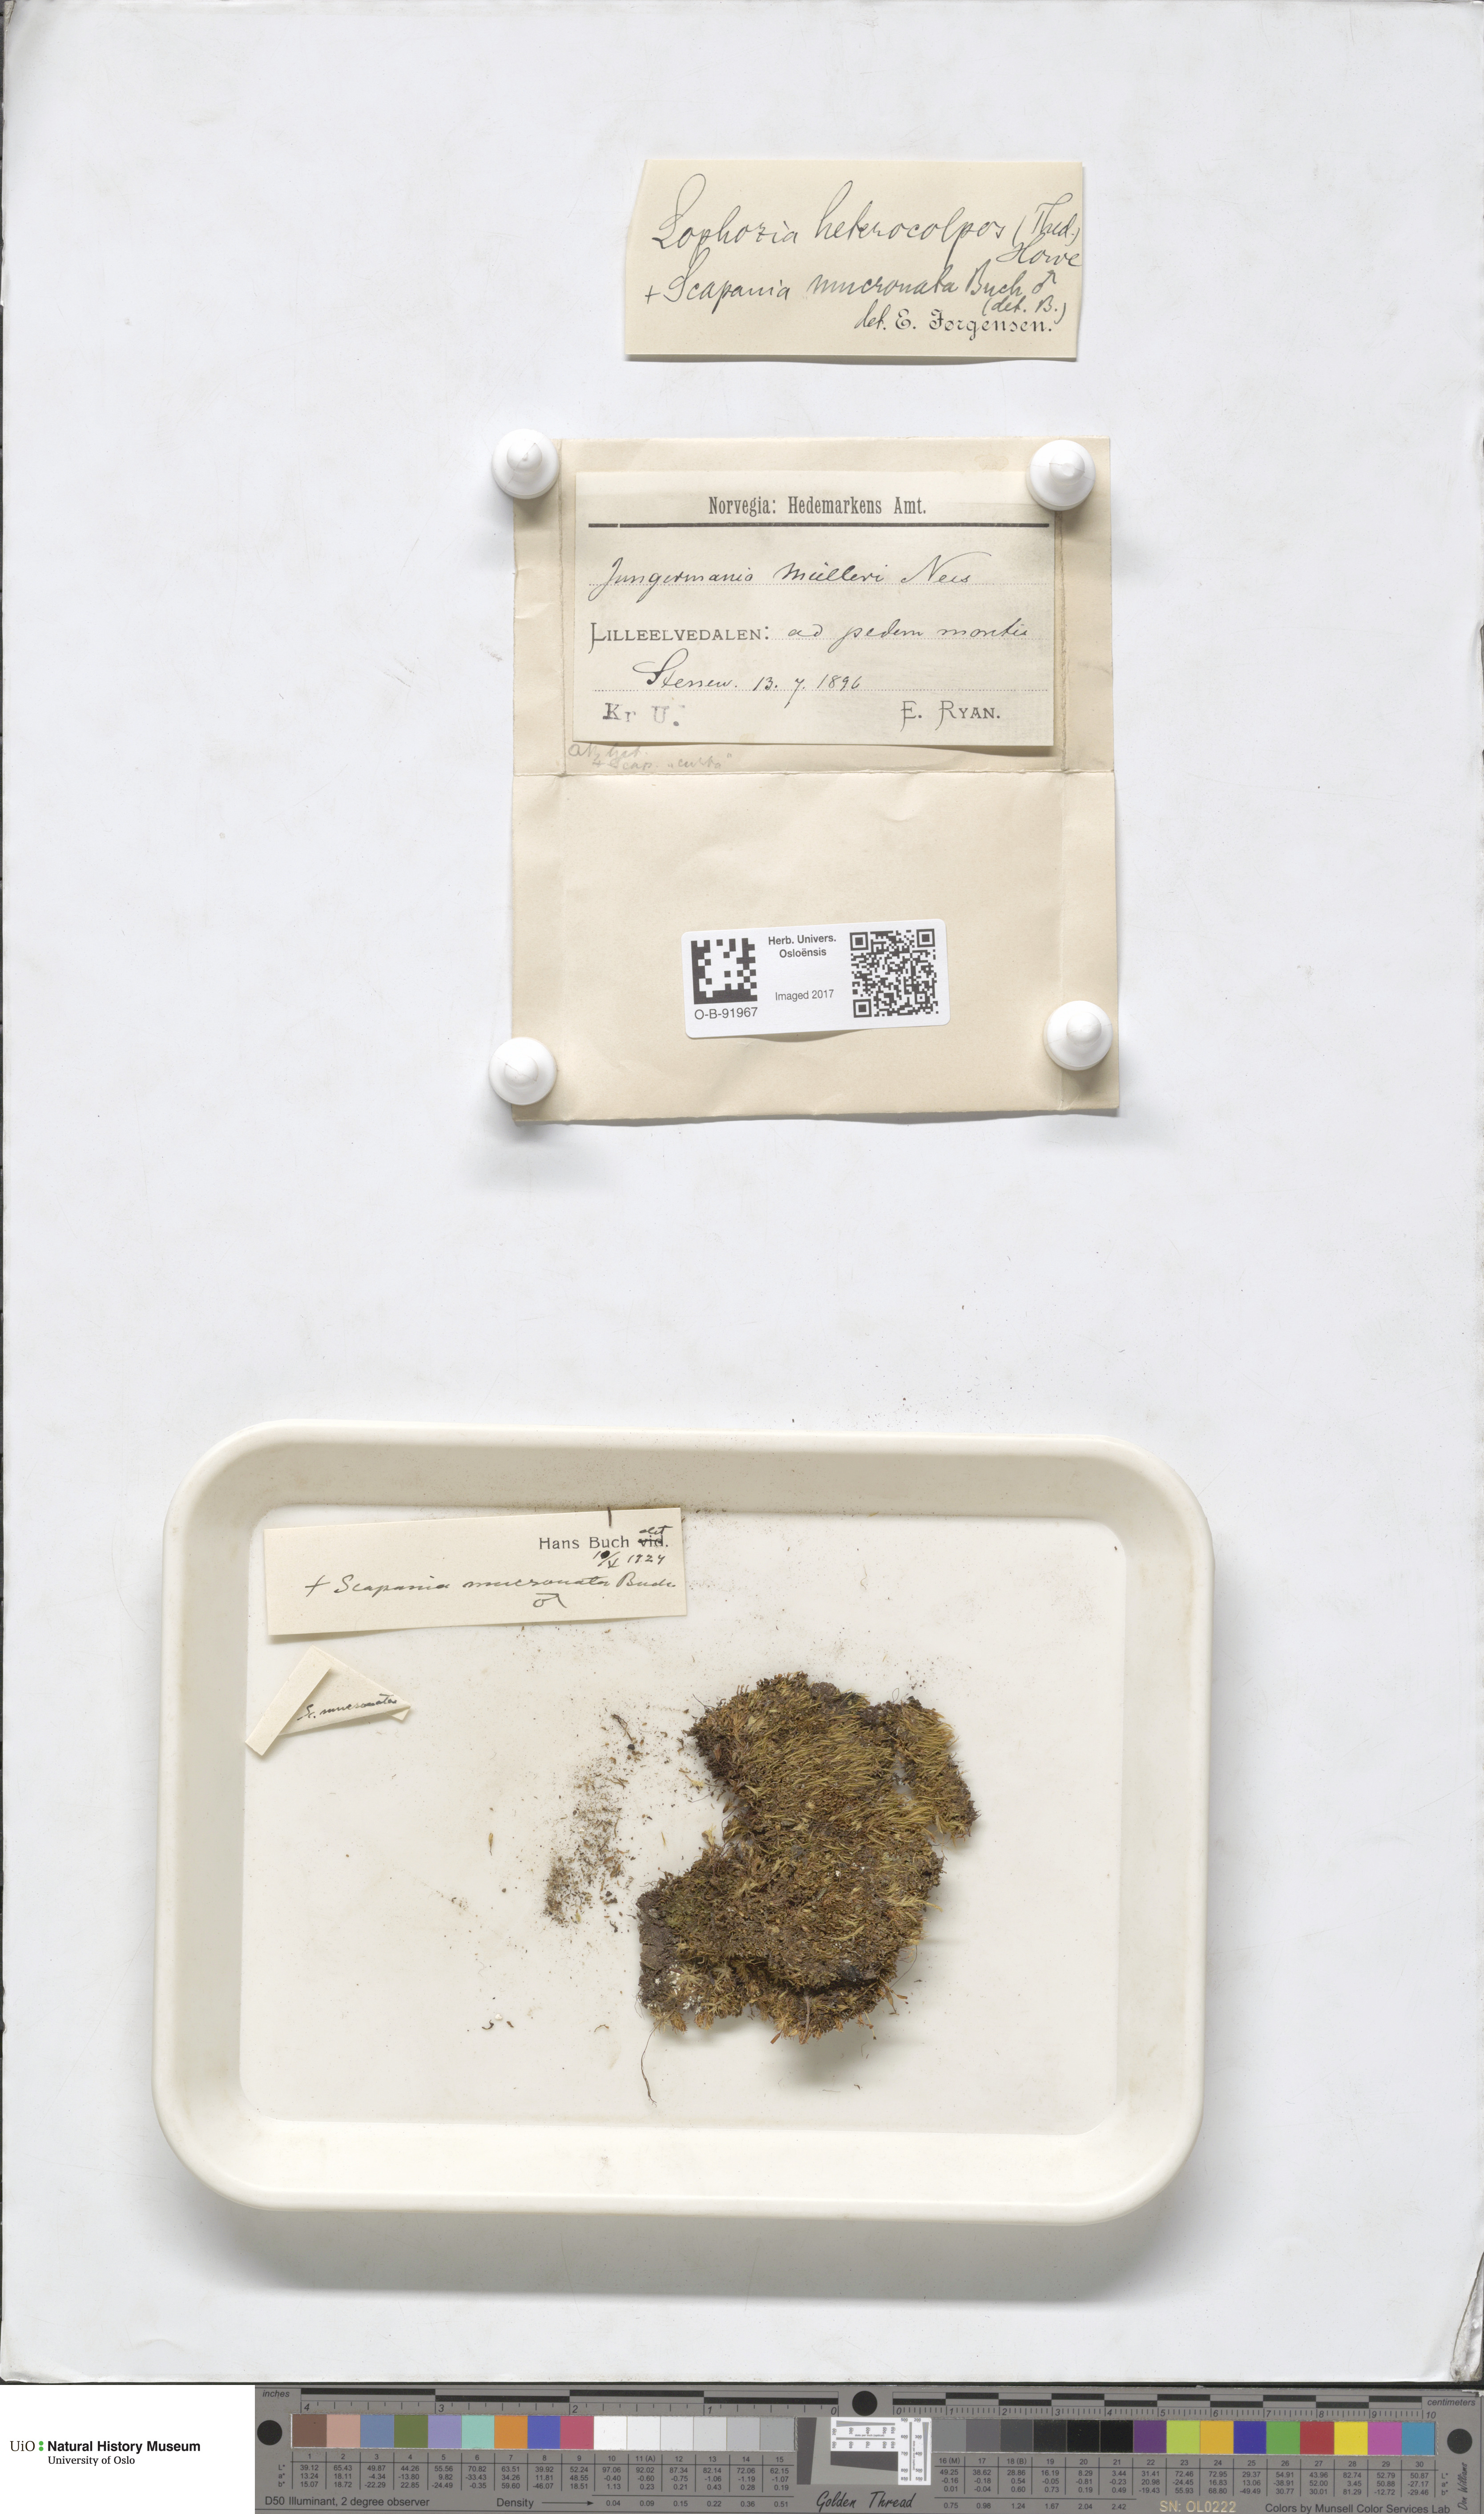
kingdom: Plantae
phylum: Marchantiophyta
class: Jungermanniopsida
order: Jungermanniales
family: Jungermanniaceae
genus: Mesoptychia
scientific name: Mesoptychia collaris
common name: Collared notchwort
